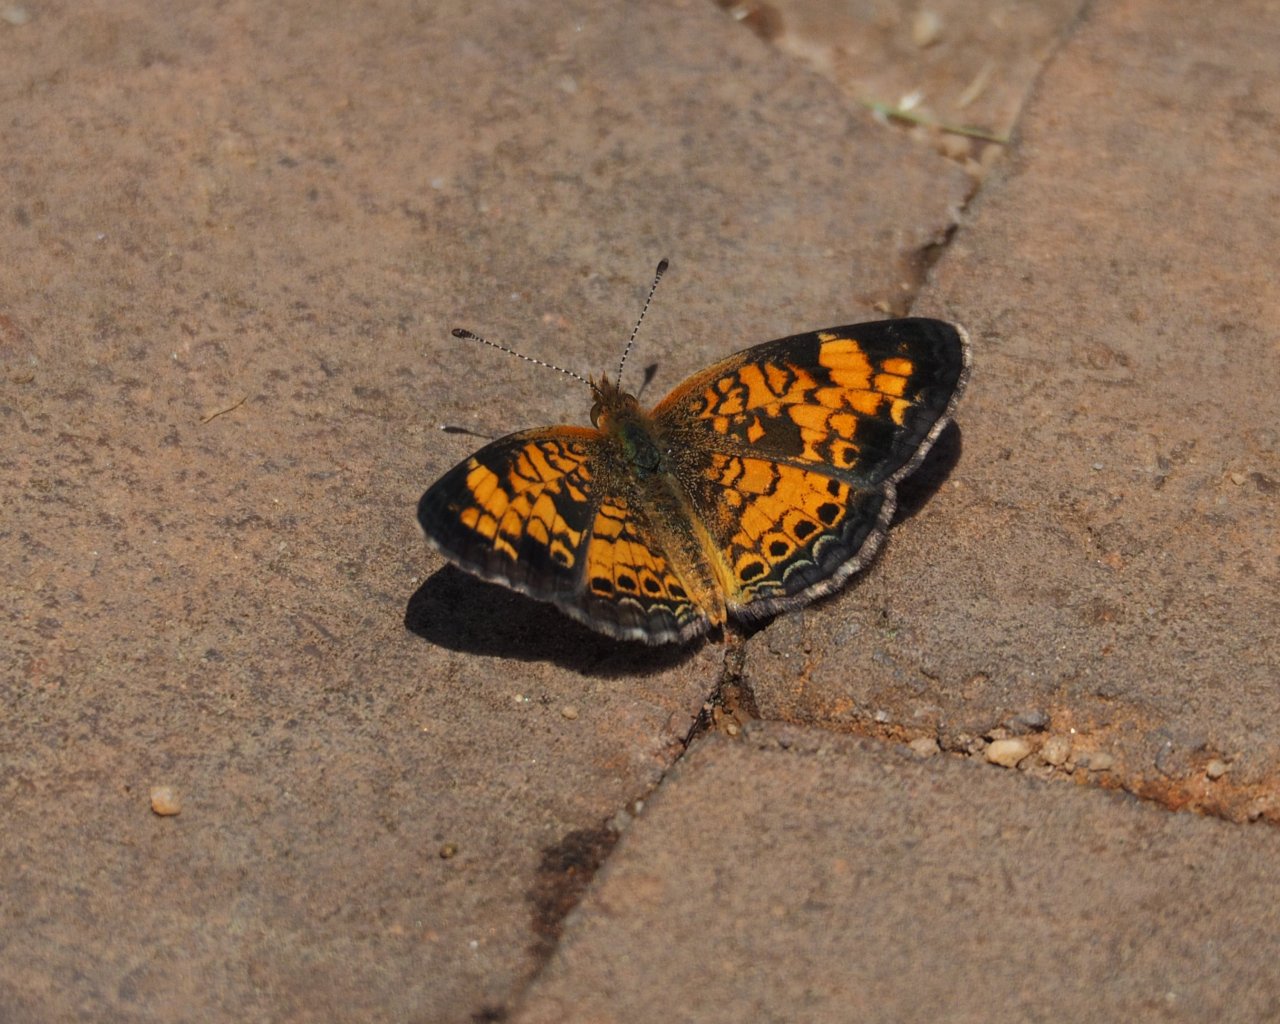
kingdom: Animalia
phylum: Arthropoda
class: Insecta
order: Lepidoptera
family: Nymphalidae
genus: Phyciodes
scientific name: Phyciodes tharos
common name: Pearl Crescent
